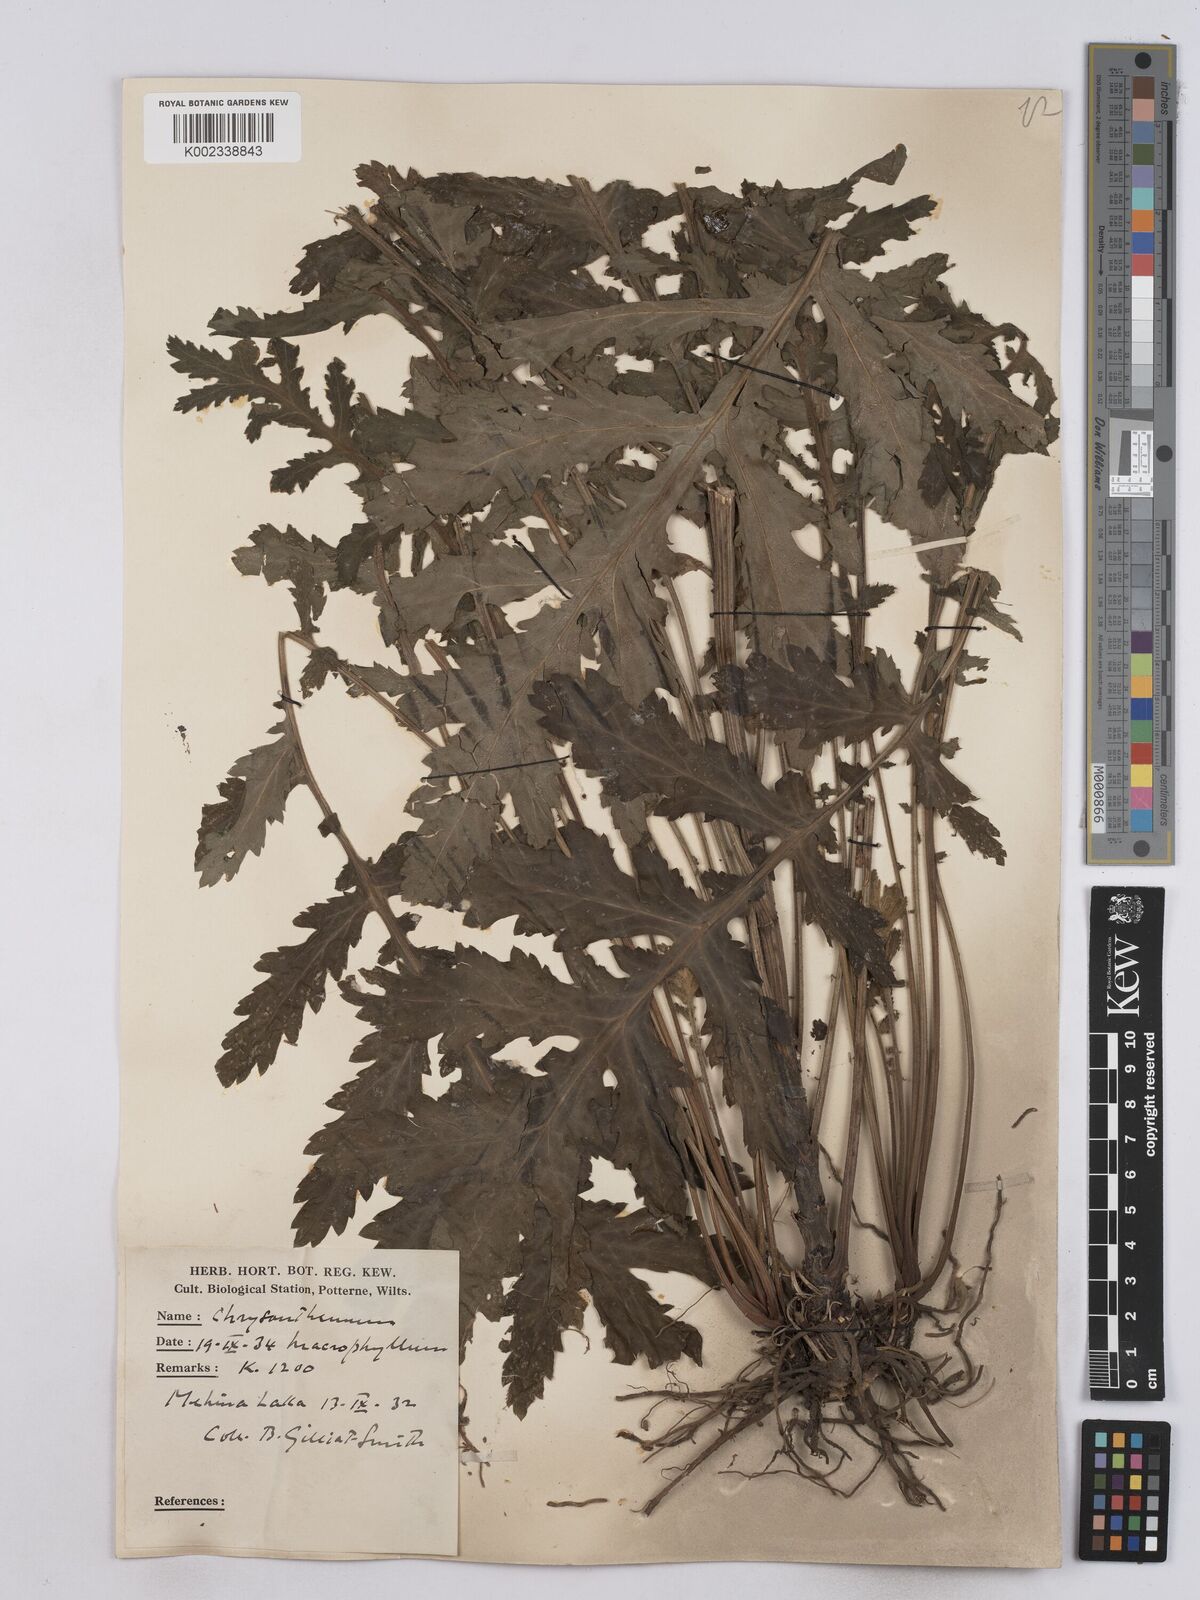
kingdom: Plantae
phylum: Tracheophyta
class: Magnoliopsida
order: Asterales
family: Asteraceae
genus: Tanacetum
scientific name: Tanacetum macrophyllum
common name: Rayed tansy
